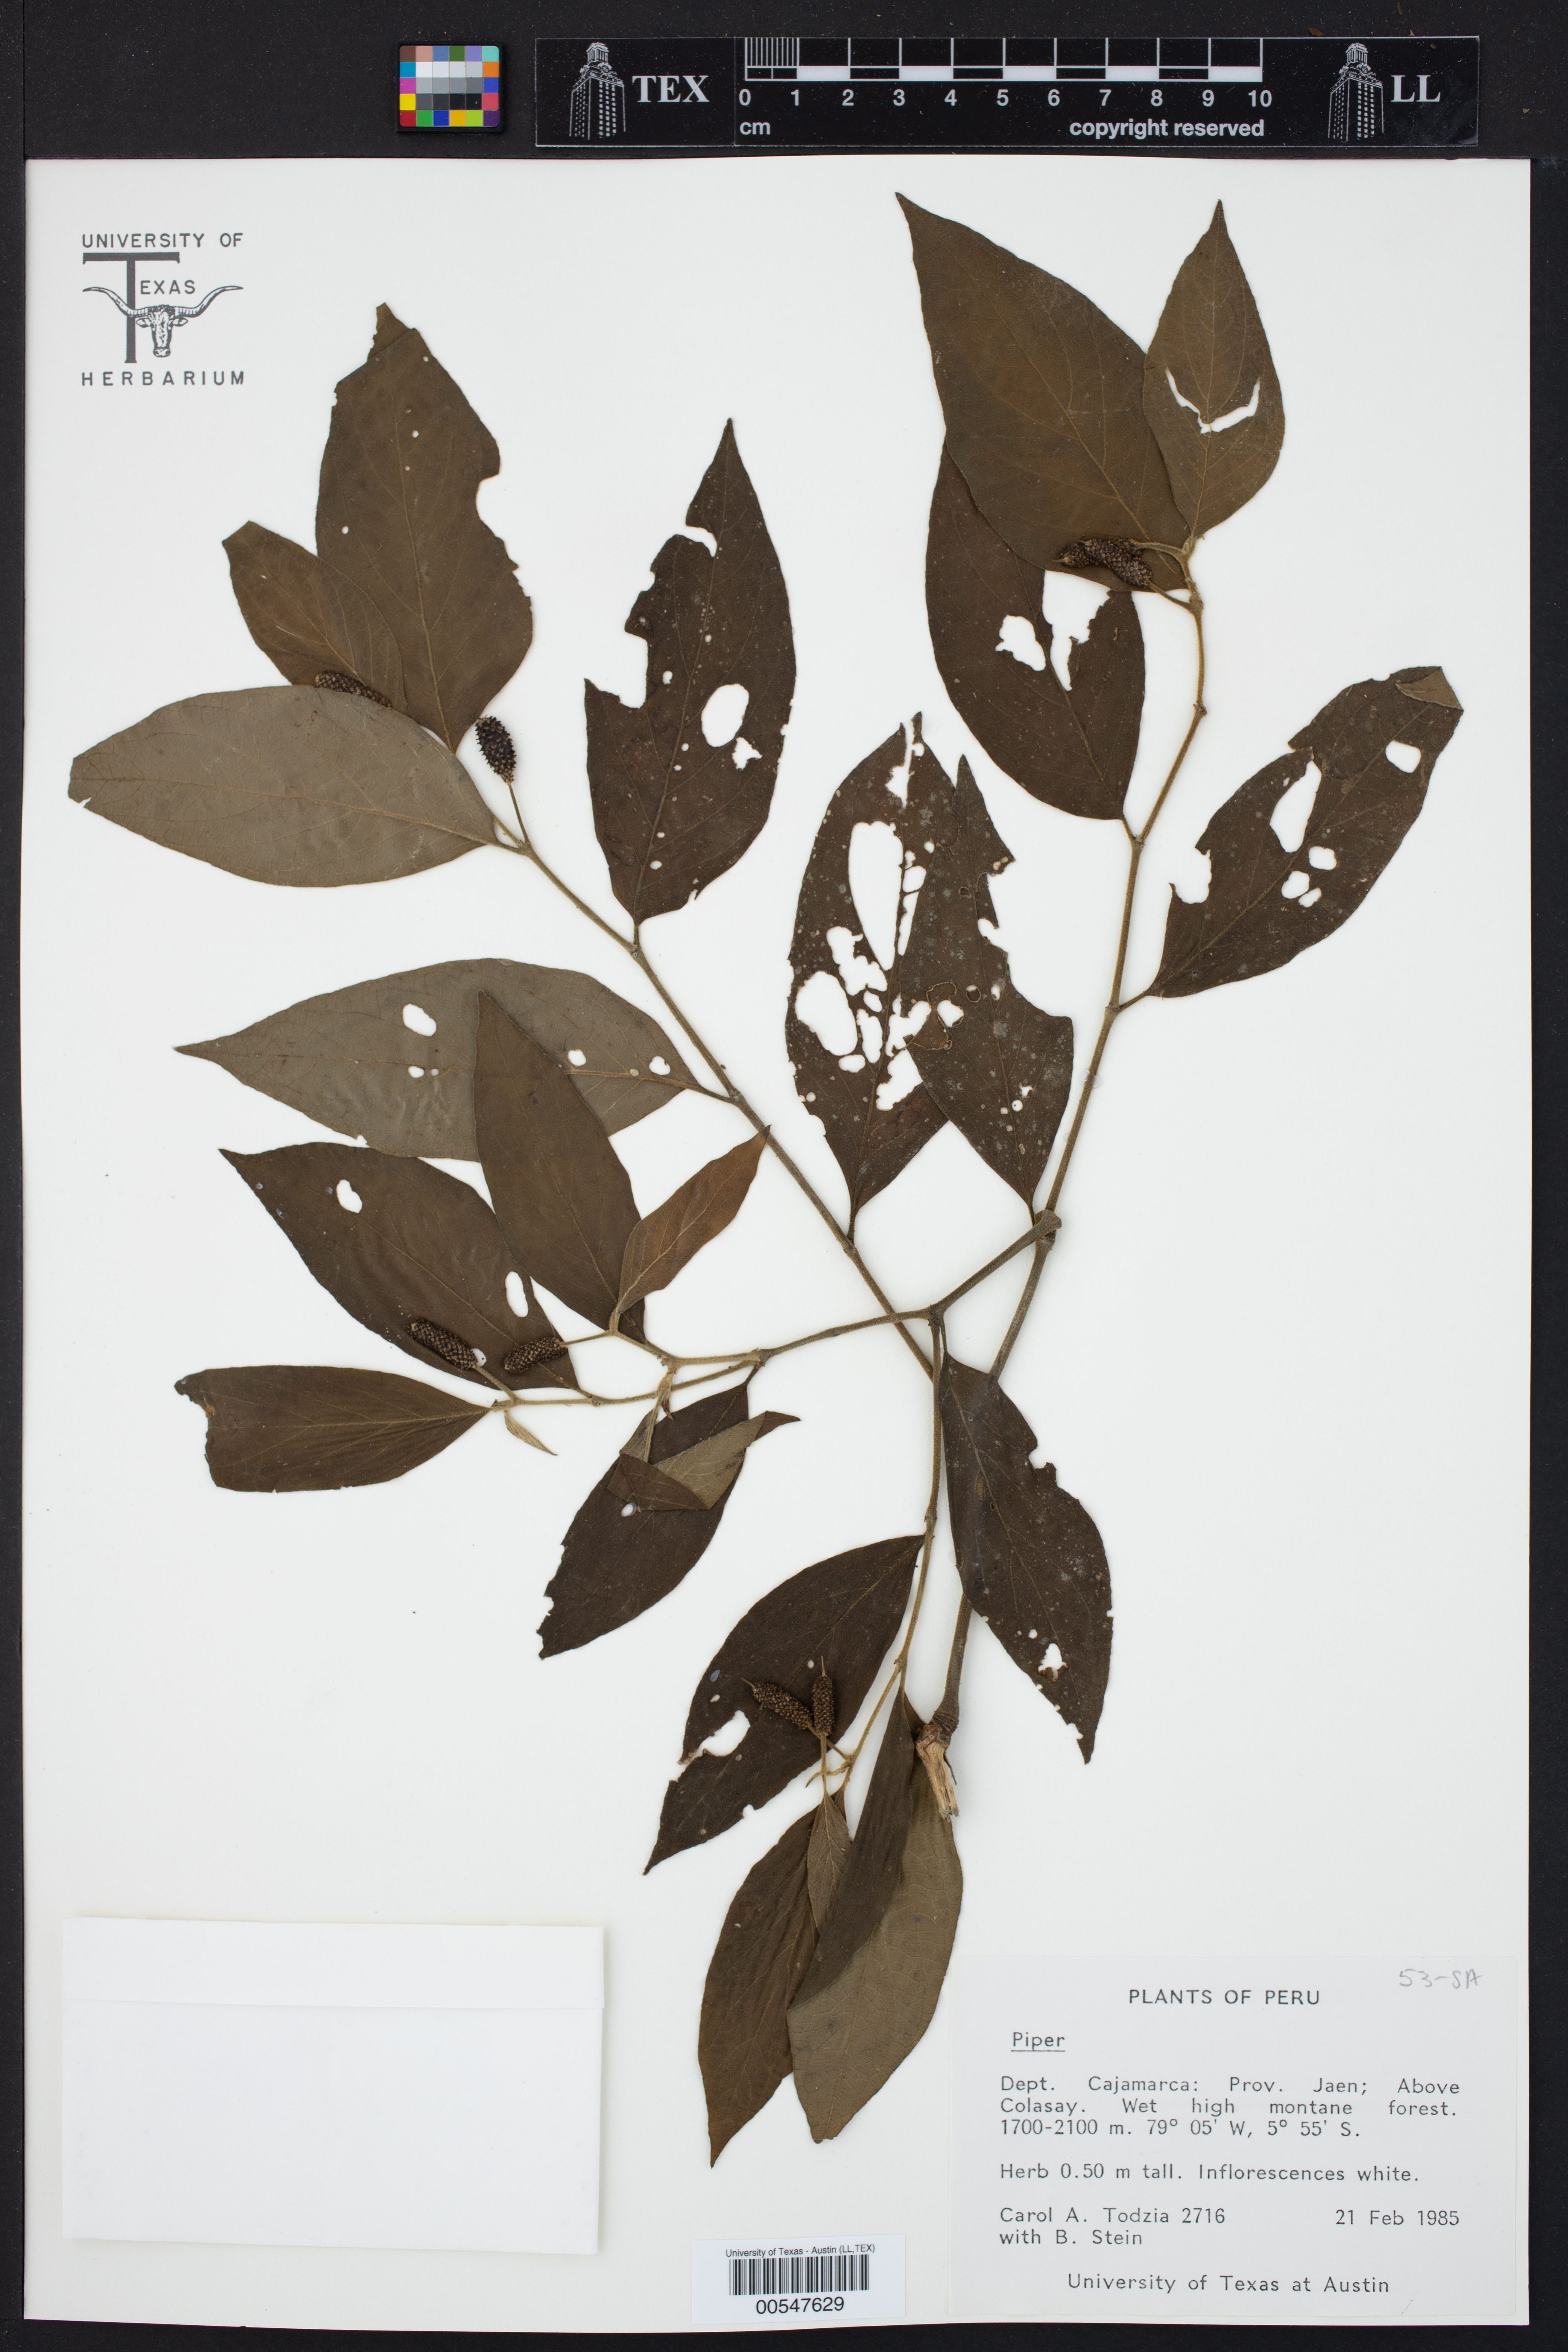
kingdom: Plantae
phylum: Tracheophyta
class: Magnoliopsida
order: Piperales
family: Piperaceae
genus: Piper
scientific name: Piper
